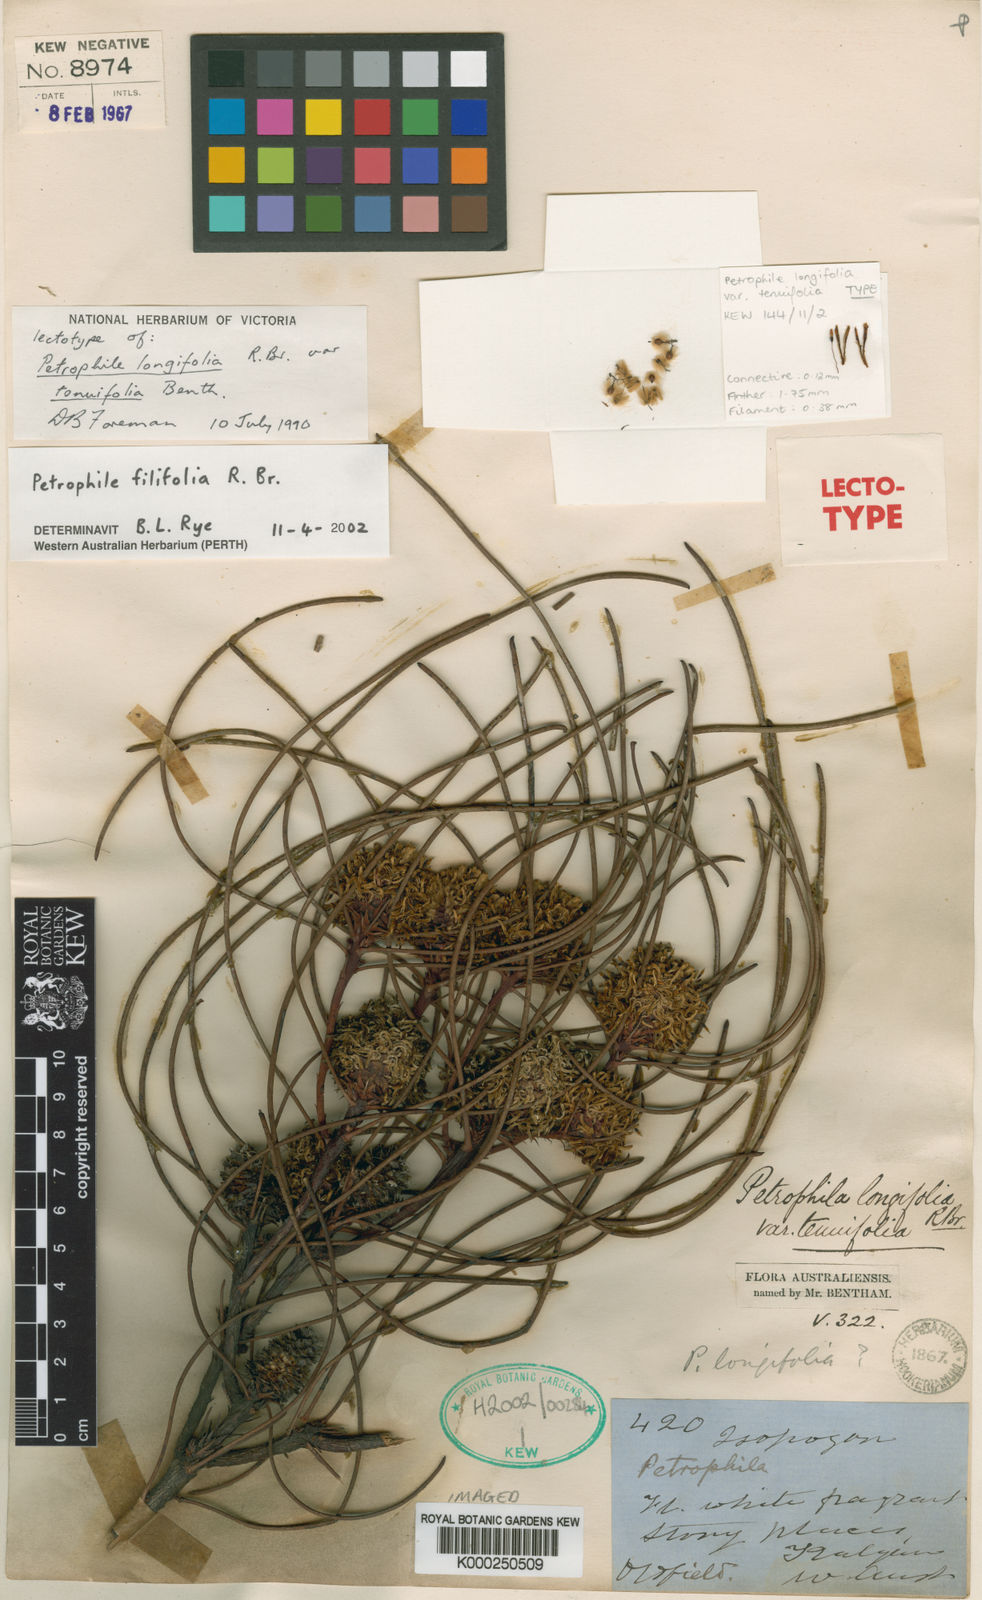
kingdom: Plantae
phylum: Tracheophyta
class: Magnoliopsida
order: Proteales
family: Proteaceae
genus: Petrophile
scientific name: Petrophile
